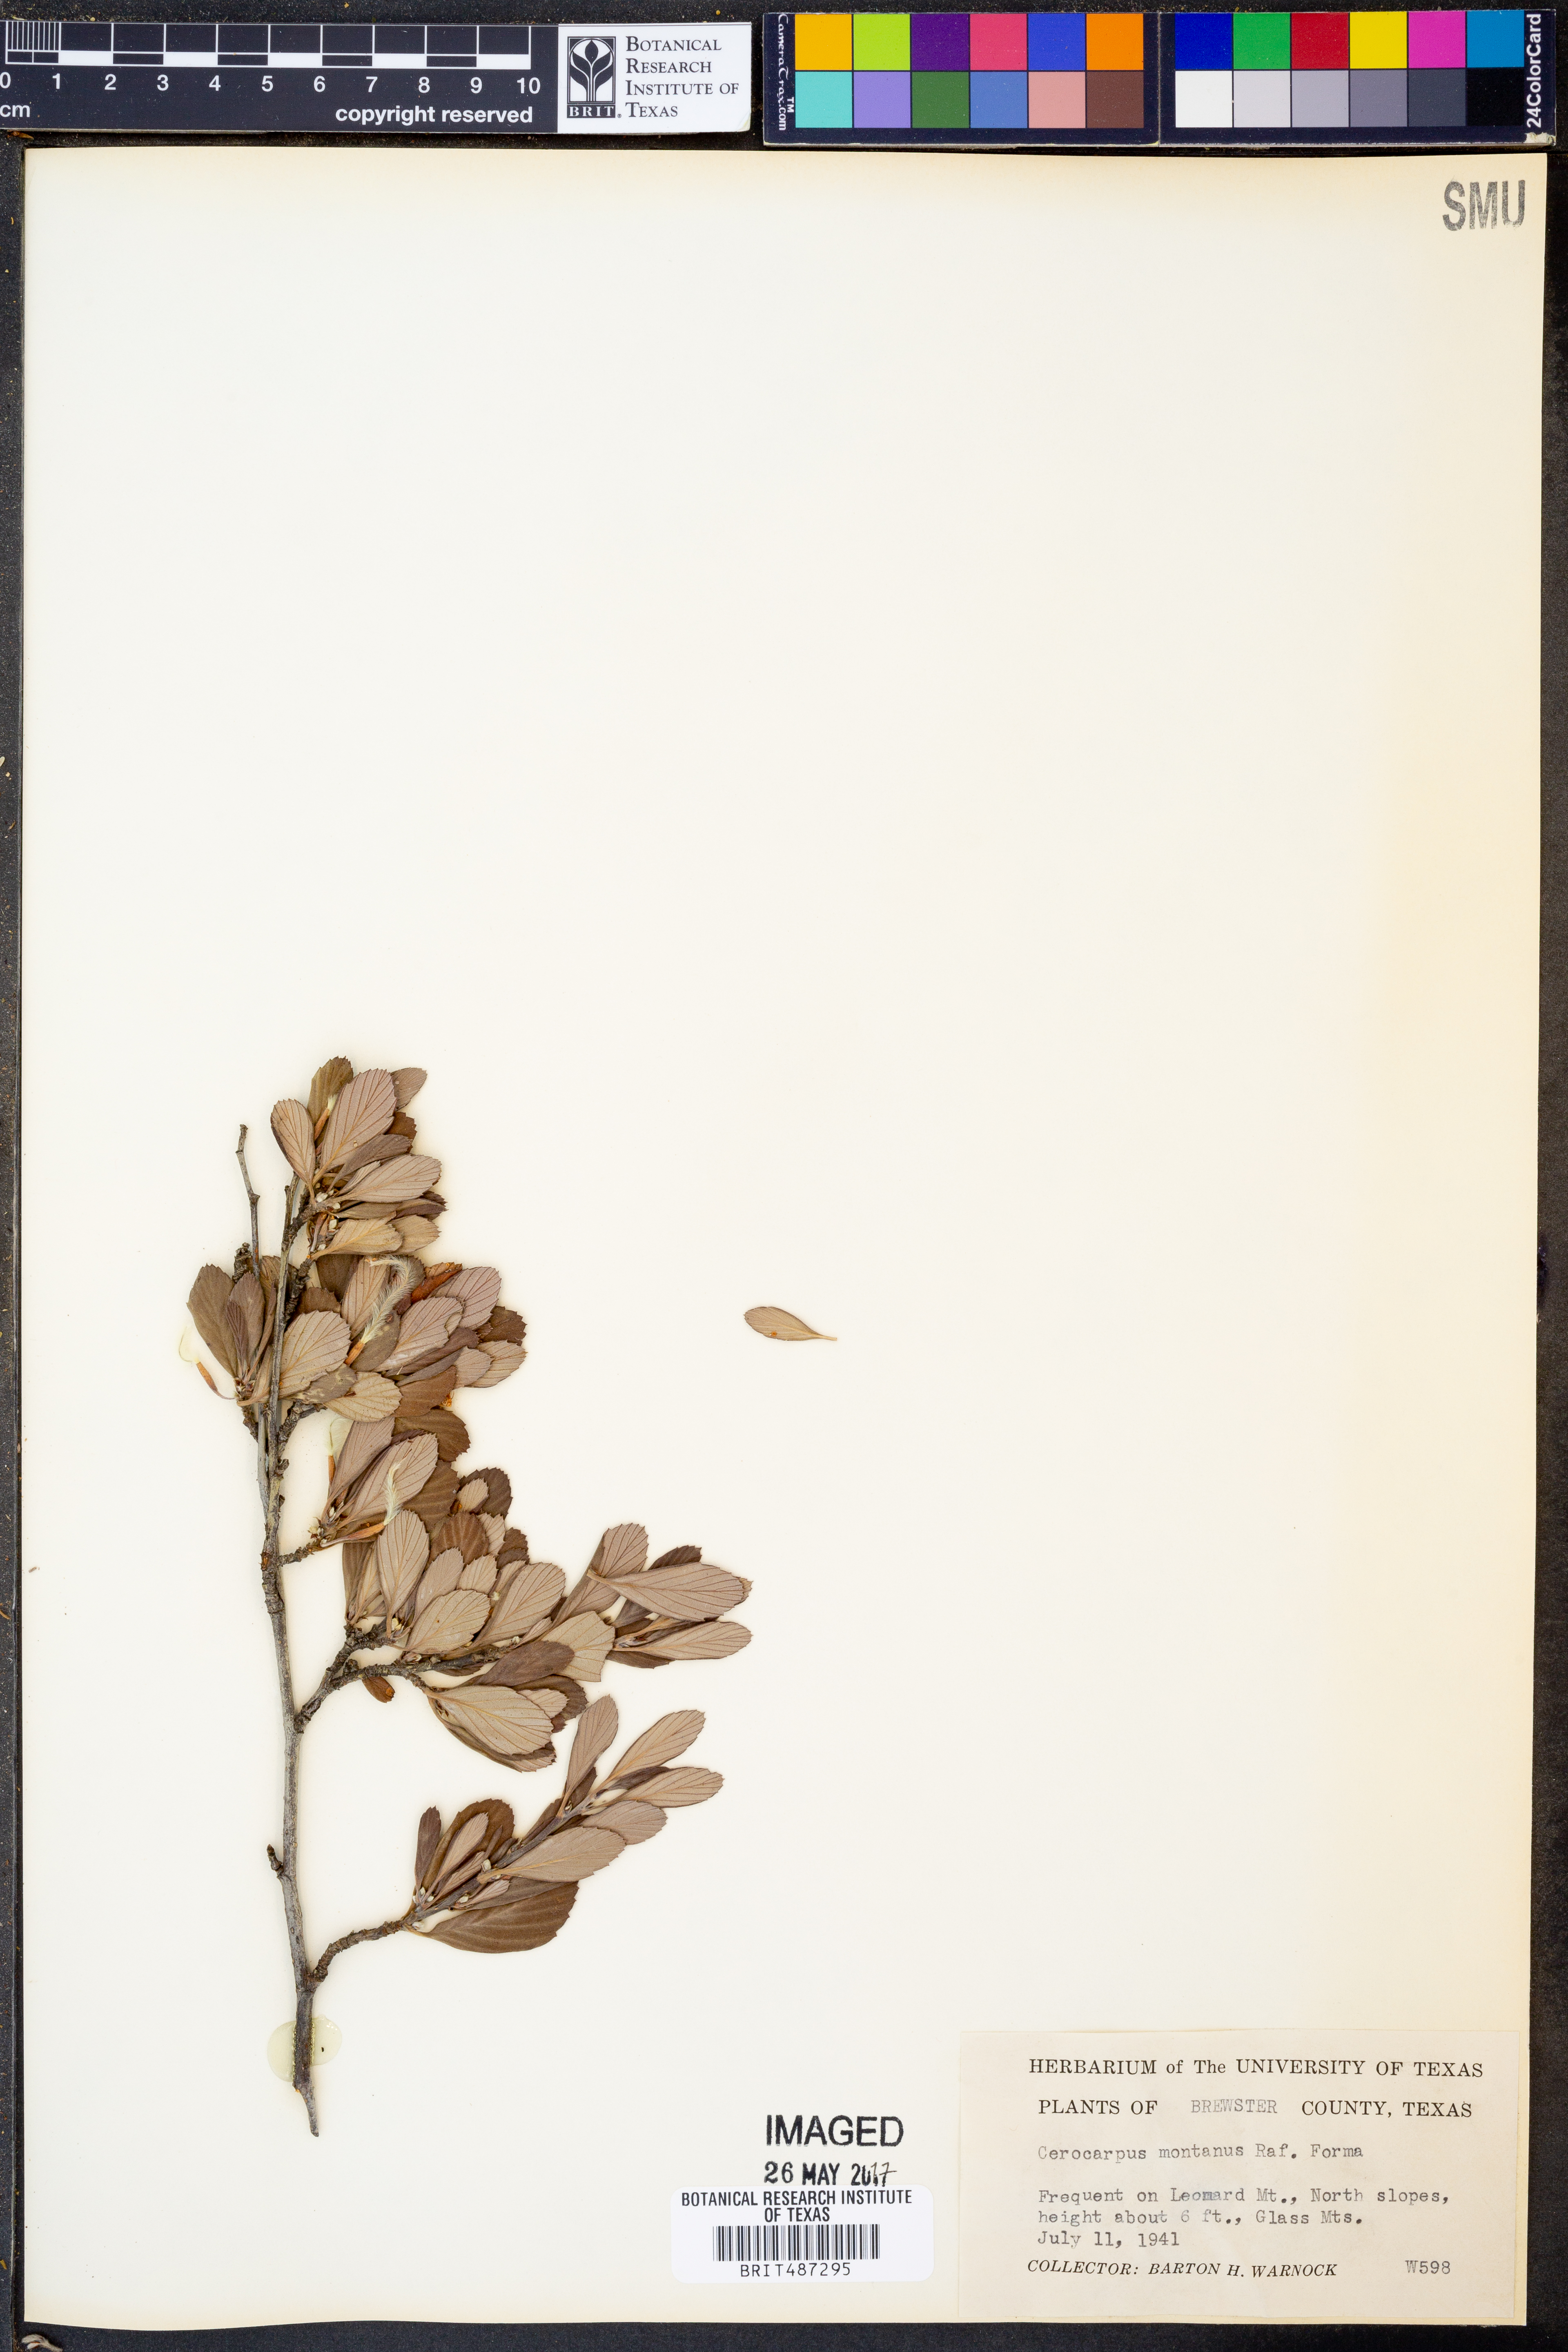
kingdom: Plantae
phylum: Tracheophyta
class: Magnoliopsida
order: Rosales
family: Rosaceae
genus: Cercocarpus
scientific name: Cercocarpus montanus
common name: Alder-leaf cercocarpus
